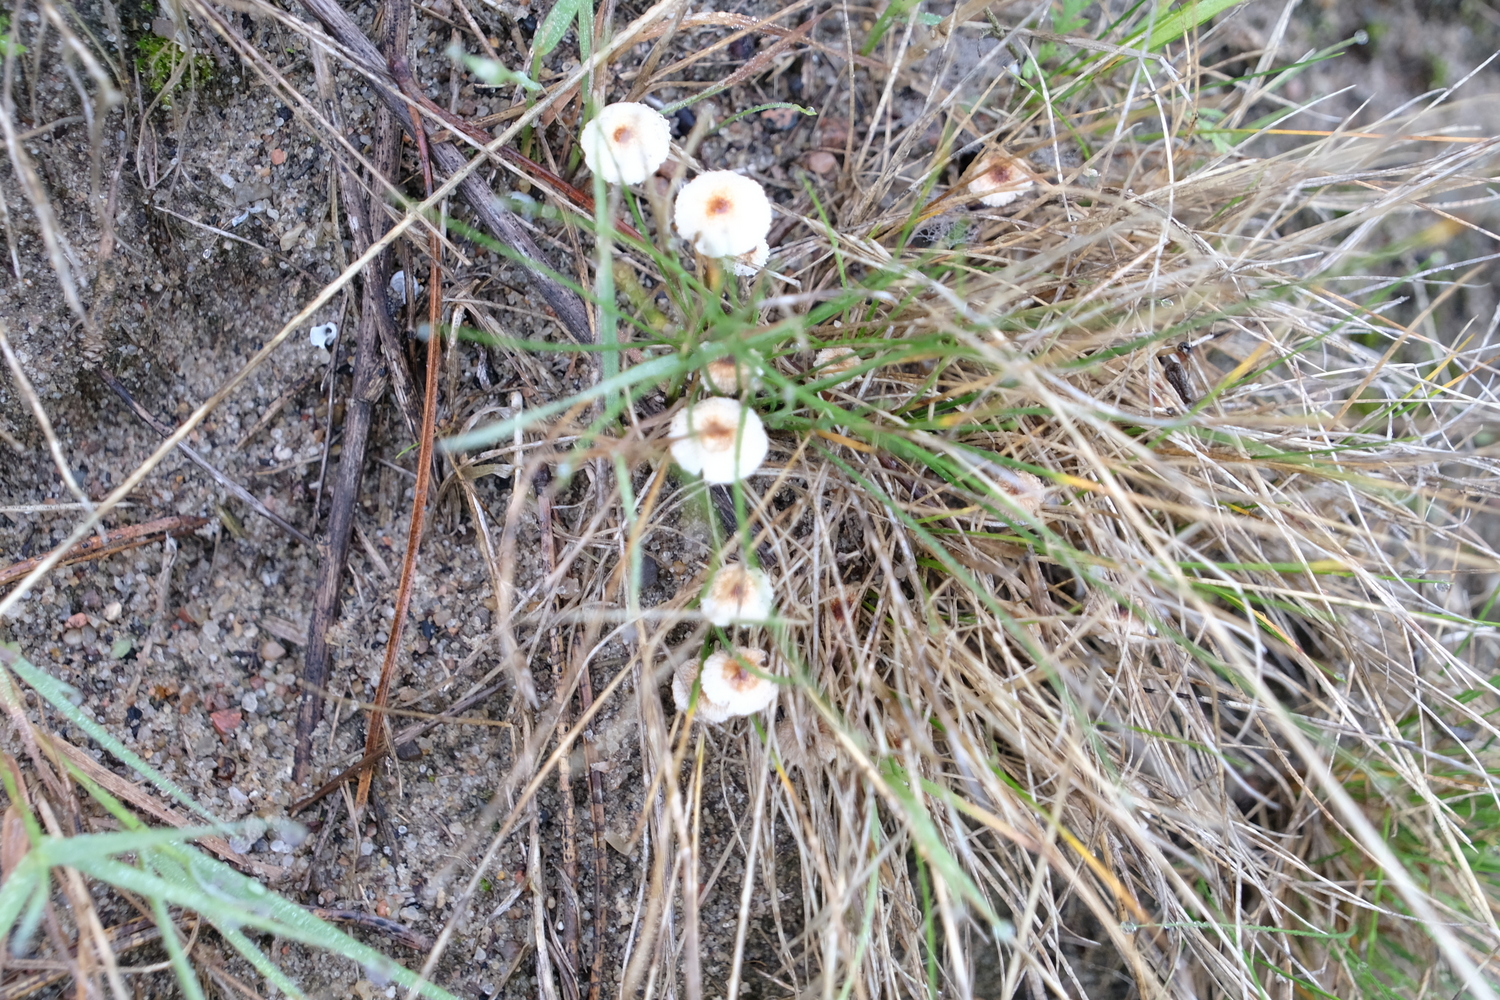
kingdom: Fungi
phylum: Basidiomycota
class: Agaricomycetes
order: Agaricales
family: Marasmiaceae
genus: Crinipellis
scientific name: Crinipellis scabella
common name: børstefod
